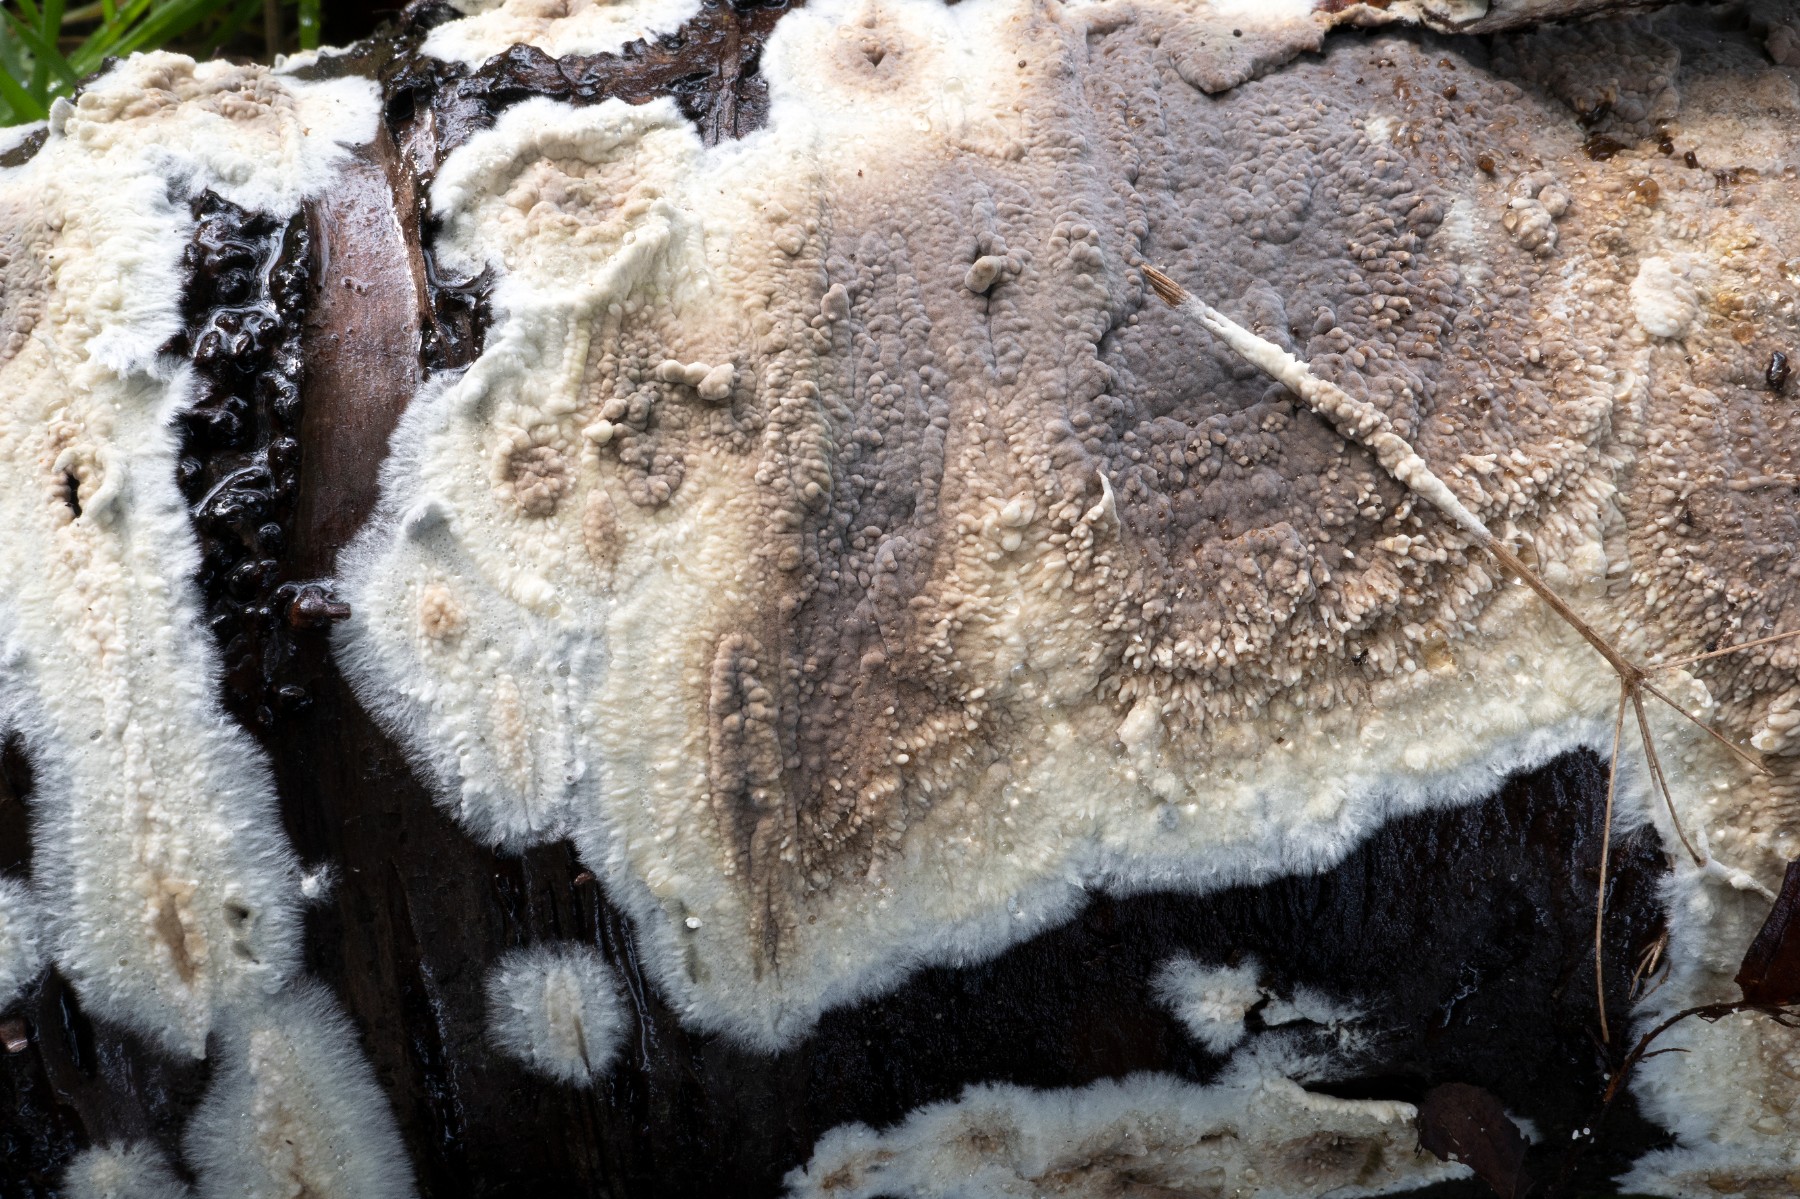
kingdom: Fungi
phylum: Basidiomycota
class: Agaricomycetes
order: Boletales
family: Coniophoraceae
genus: Coniophora
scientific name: Coniophora puteana
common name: gul tømmersvamp
